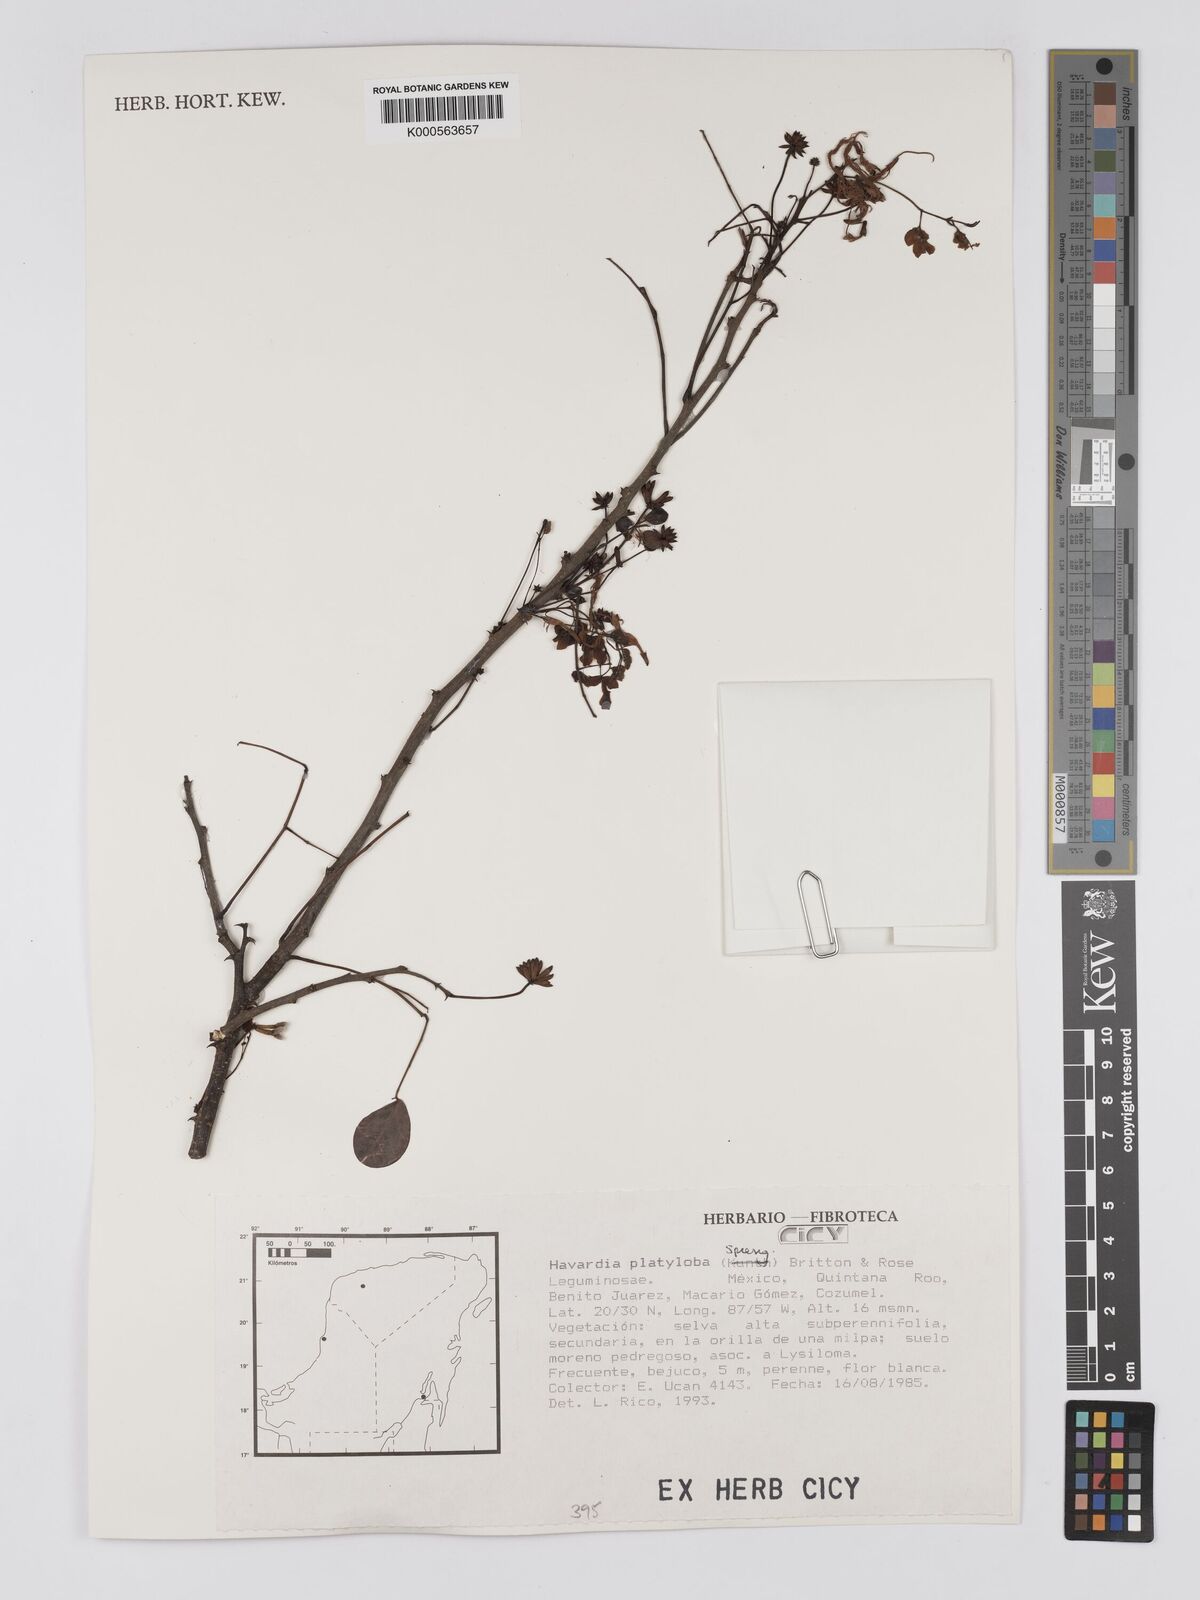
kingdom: Plantae
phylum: Tracheophyta
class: Magnoliopsida
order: Fabales
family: Fabaceae
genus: Havardia
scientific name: Havardia platyloba
